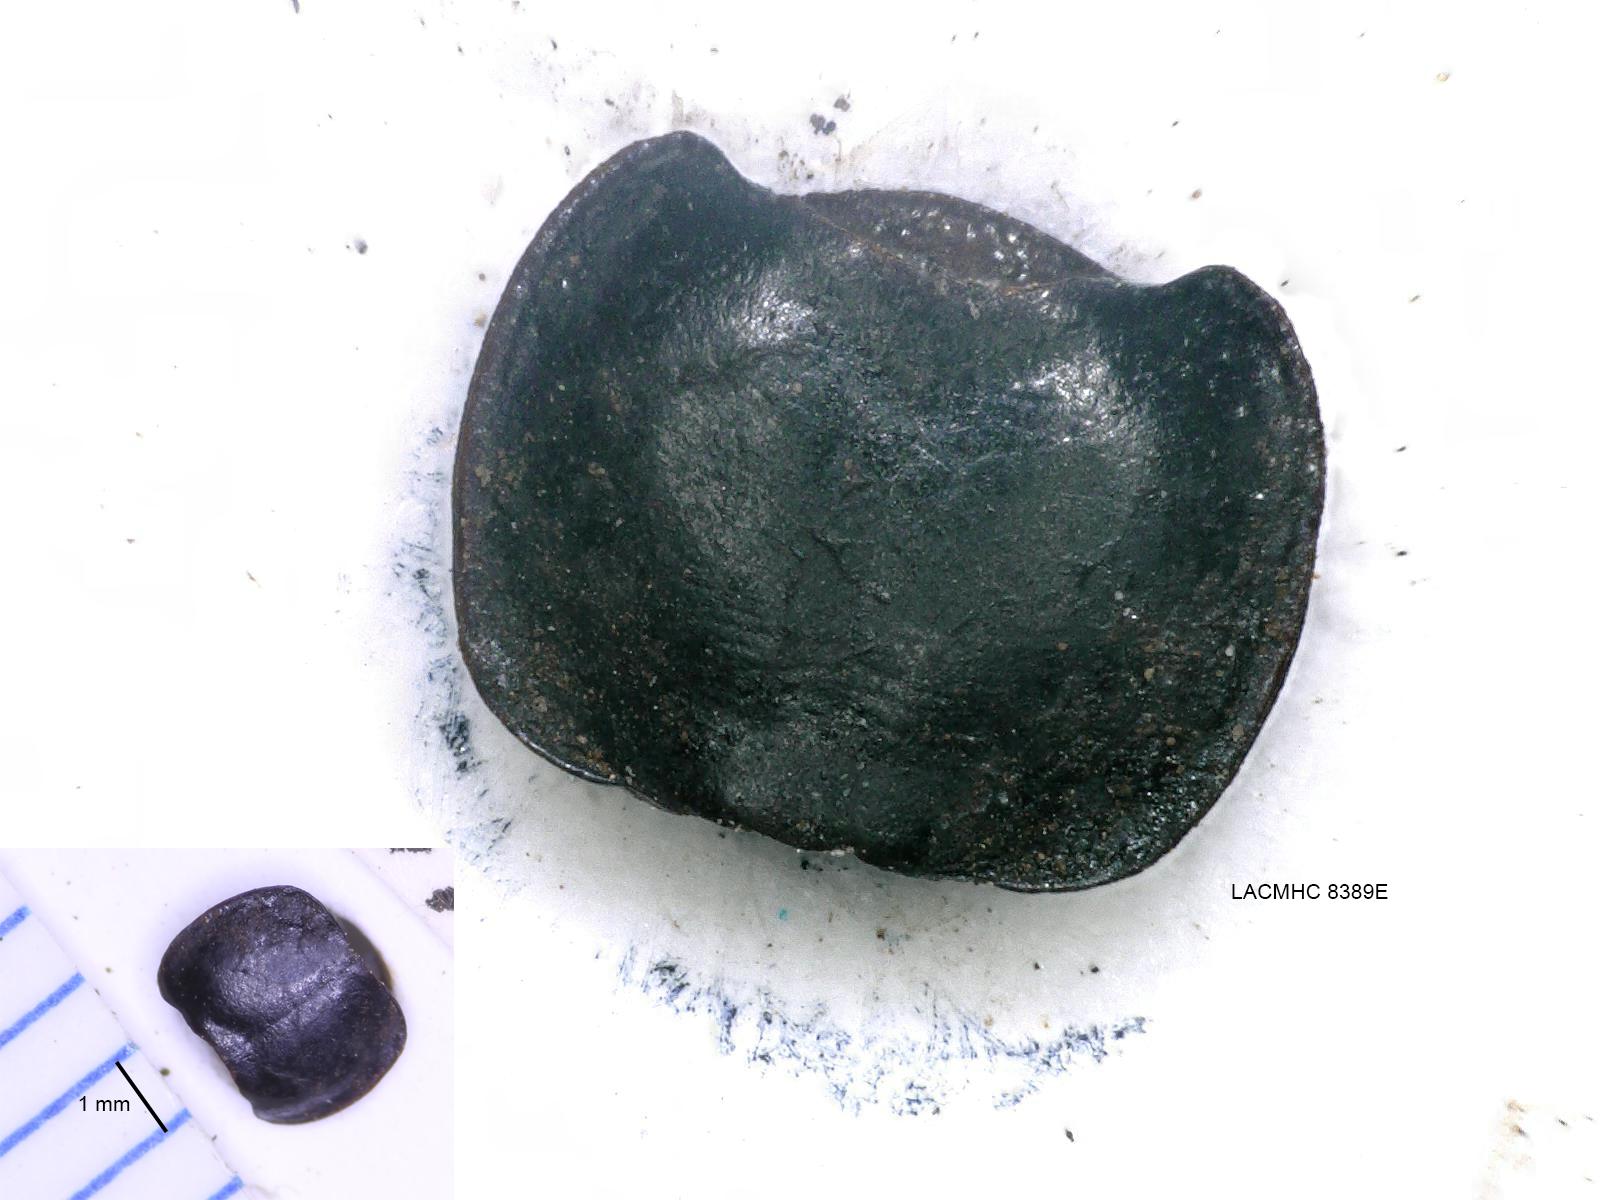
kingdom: Animalia
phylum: Arthropoda
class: Insecta
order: Coleoptera
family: Carabidae
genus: Tanystoma
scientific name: Tanystoma maculicolle
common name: Tule beetle
